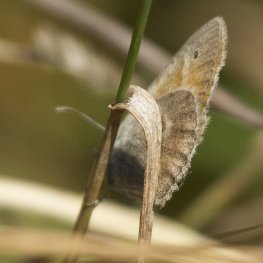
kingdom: Animalia
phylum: Arthropoda
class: Insecta
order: Lepidoptera
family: Nymphalidae
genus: Coenonympha
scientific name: Coenonympha tullia
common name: Large Heath
